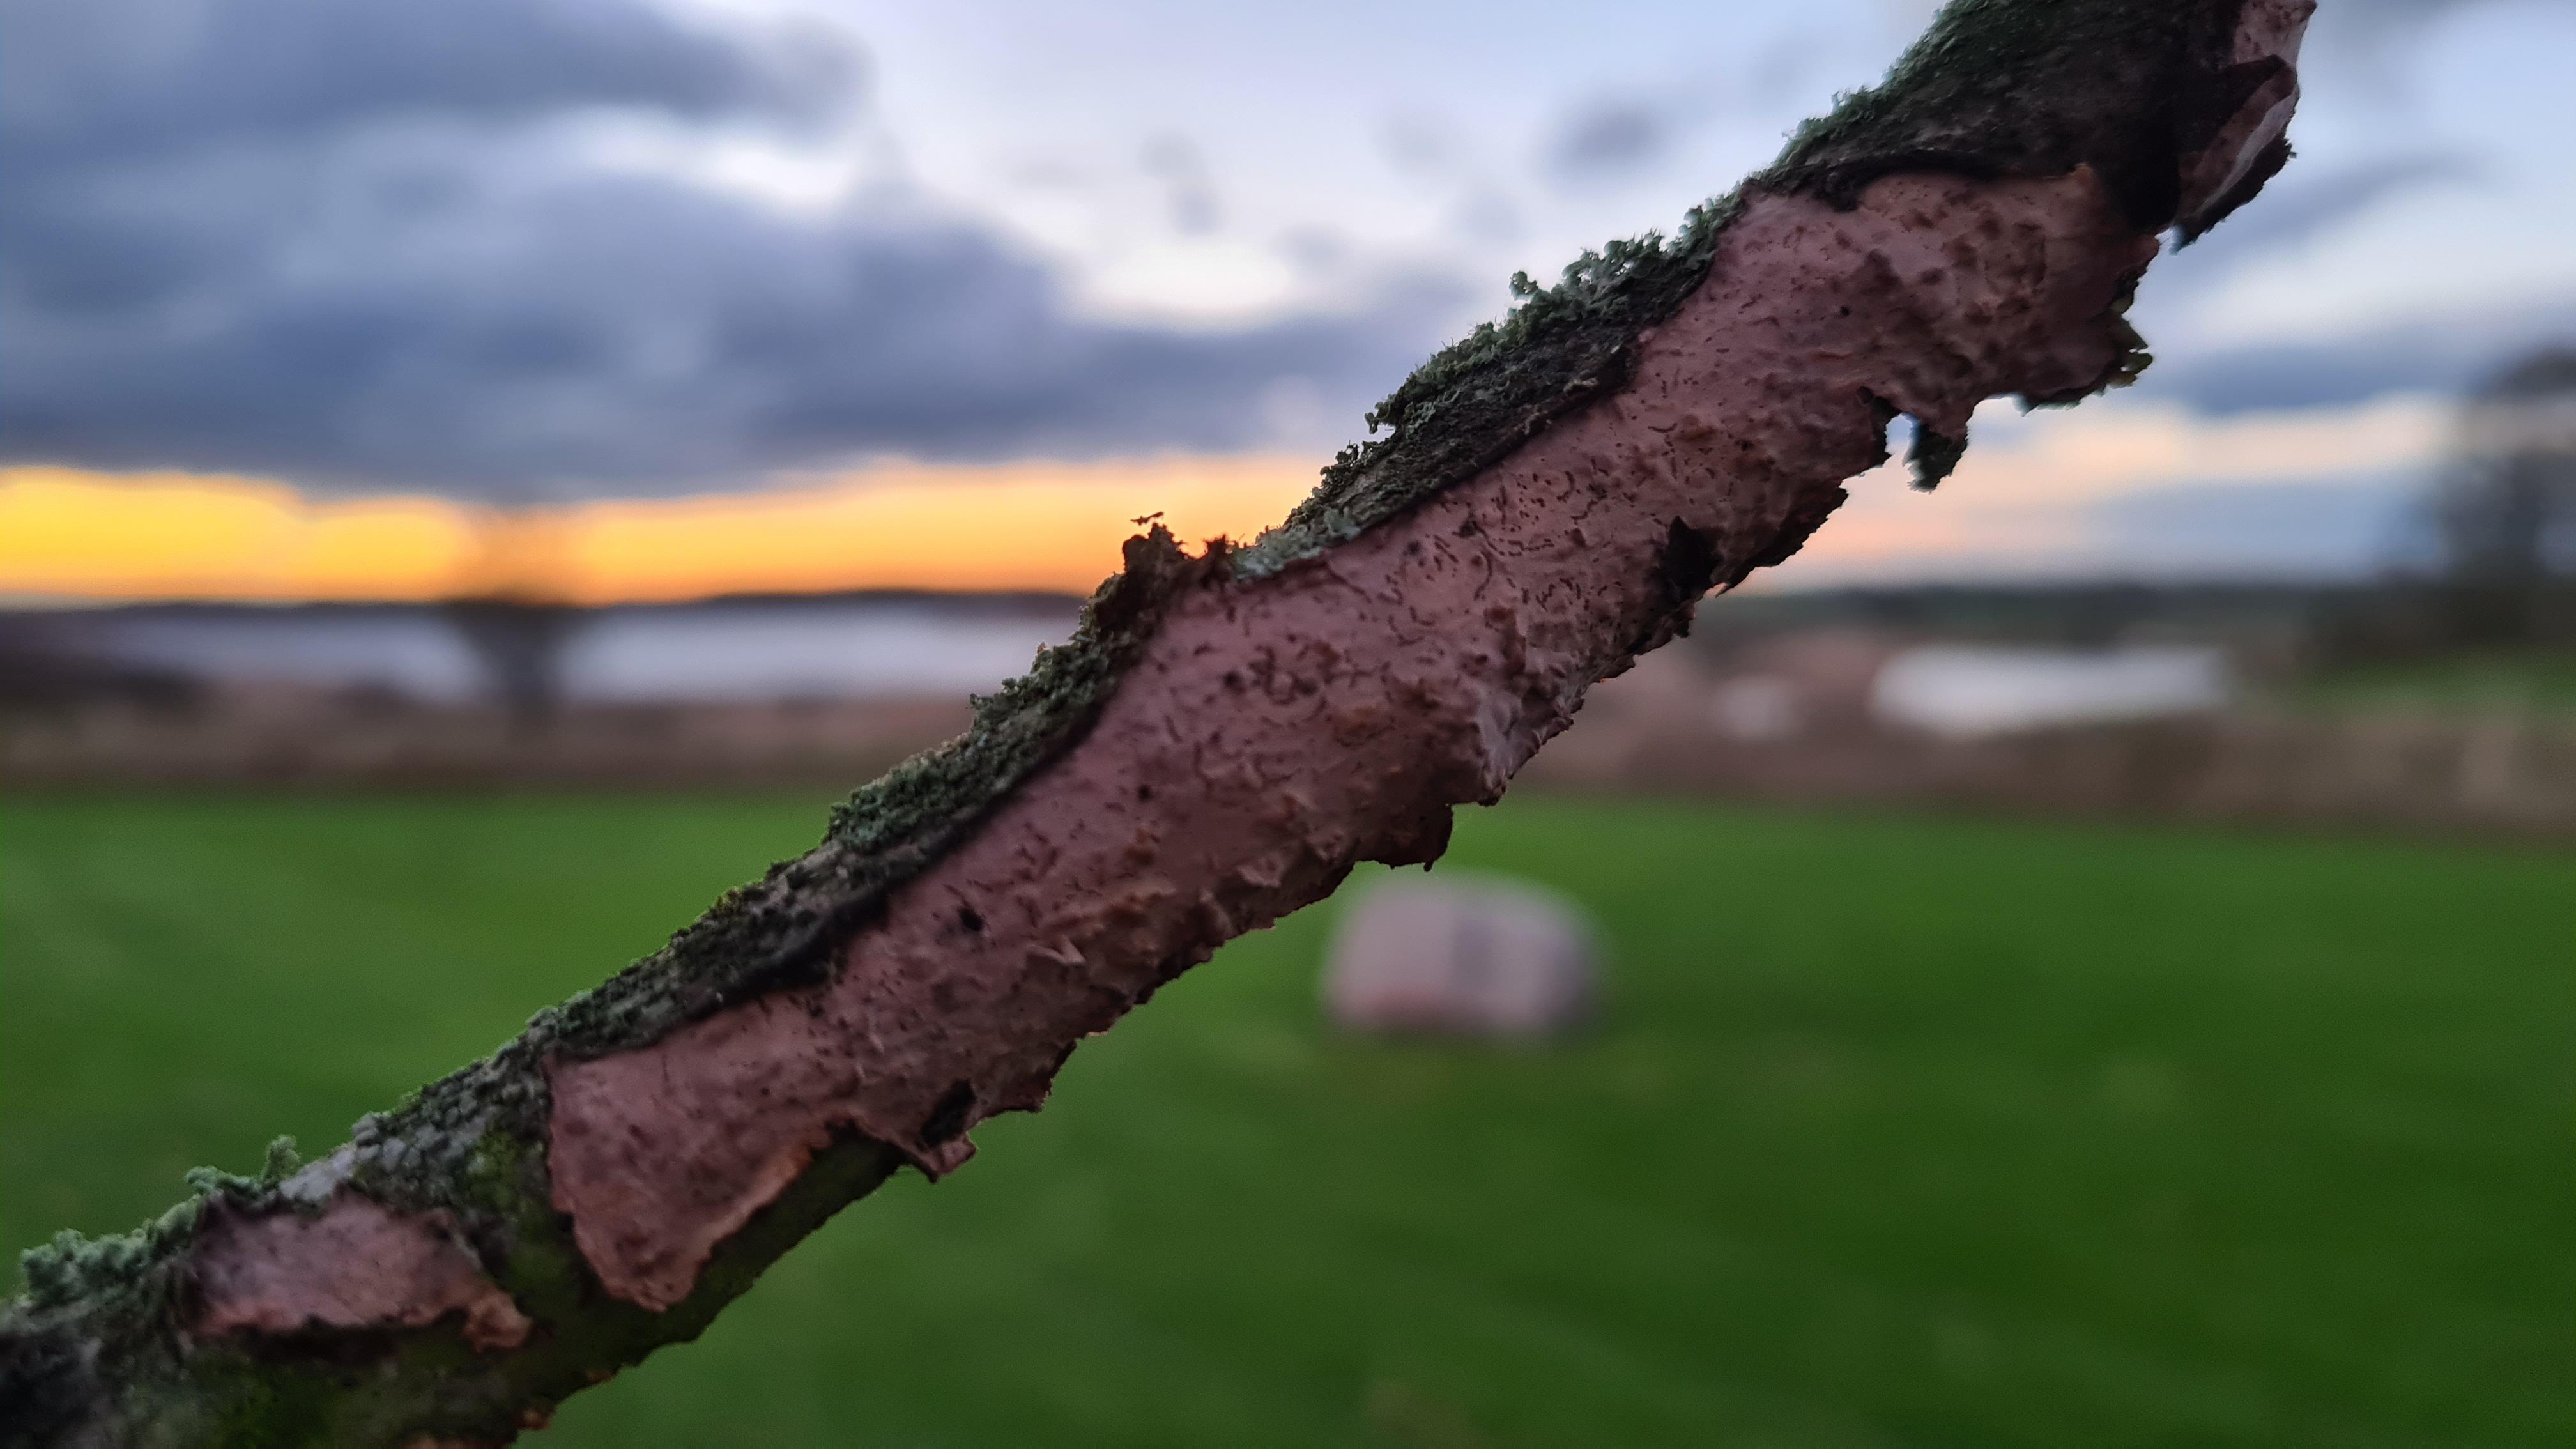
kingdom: Fungi
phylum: Basidiomycota
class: Agaricomycetes
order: Russulales
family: Peniophoraceae
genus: Peniophora
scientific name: Peniophora quercina
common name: ege-voksskind
